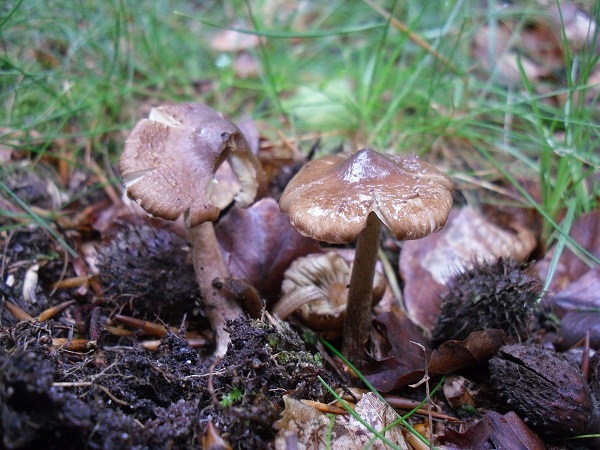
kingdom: Fungi
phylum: Basidiomycota
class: Agaricomycetes
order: Agaricales
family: Inocybaceae
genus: Inocybe
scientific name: Inocybe napipes
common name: roeknoldet trævlhat
